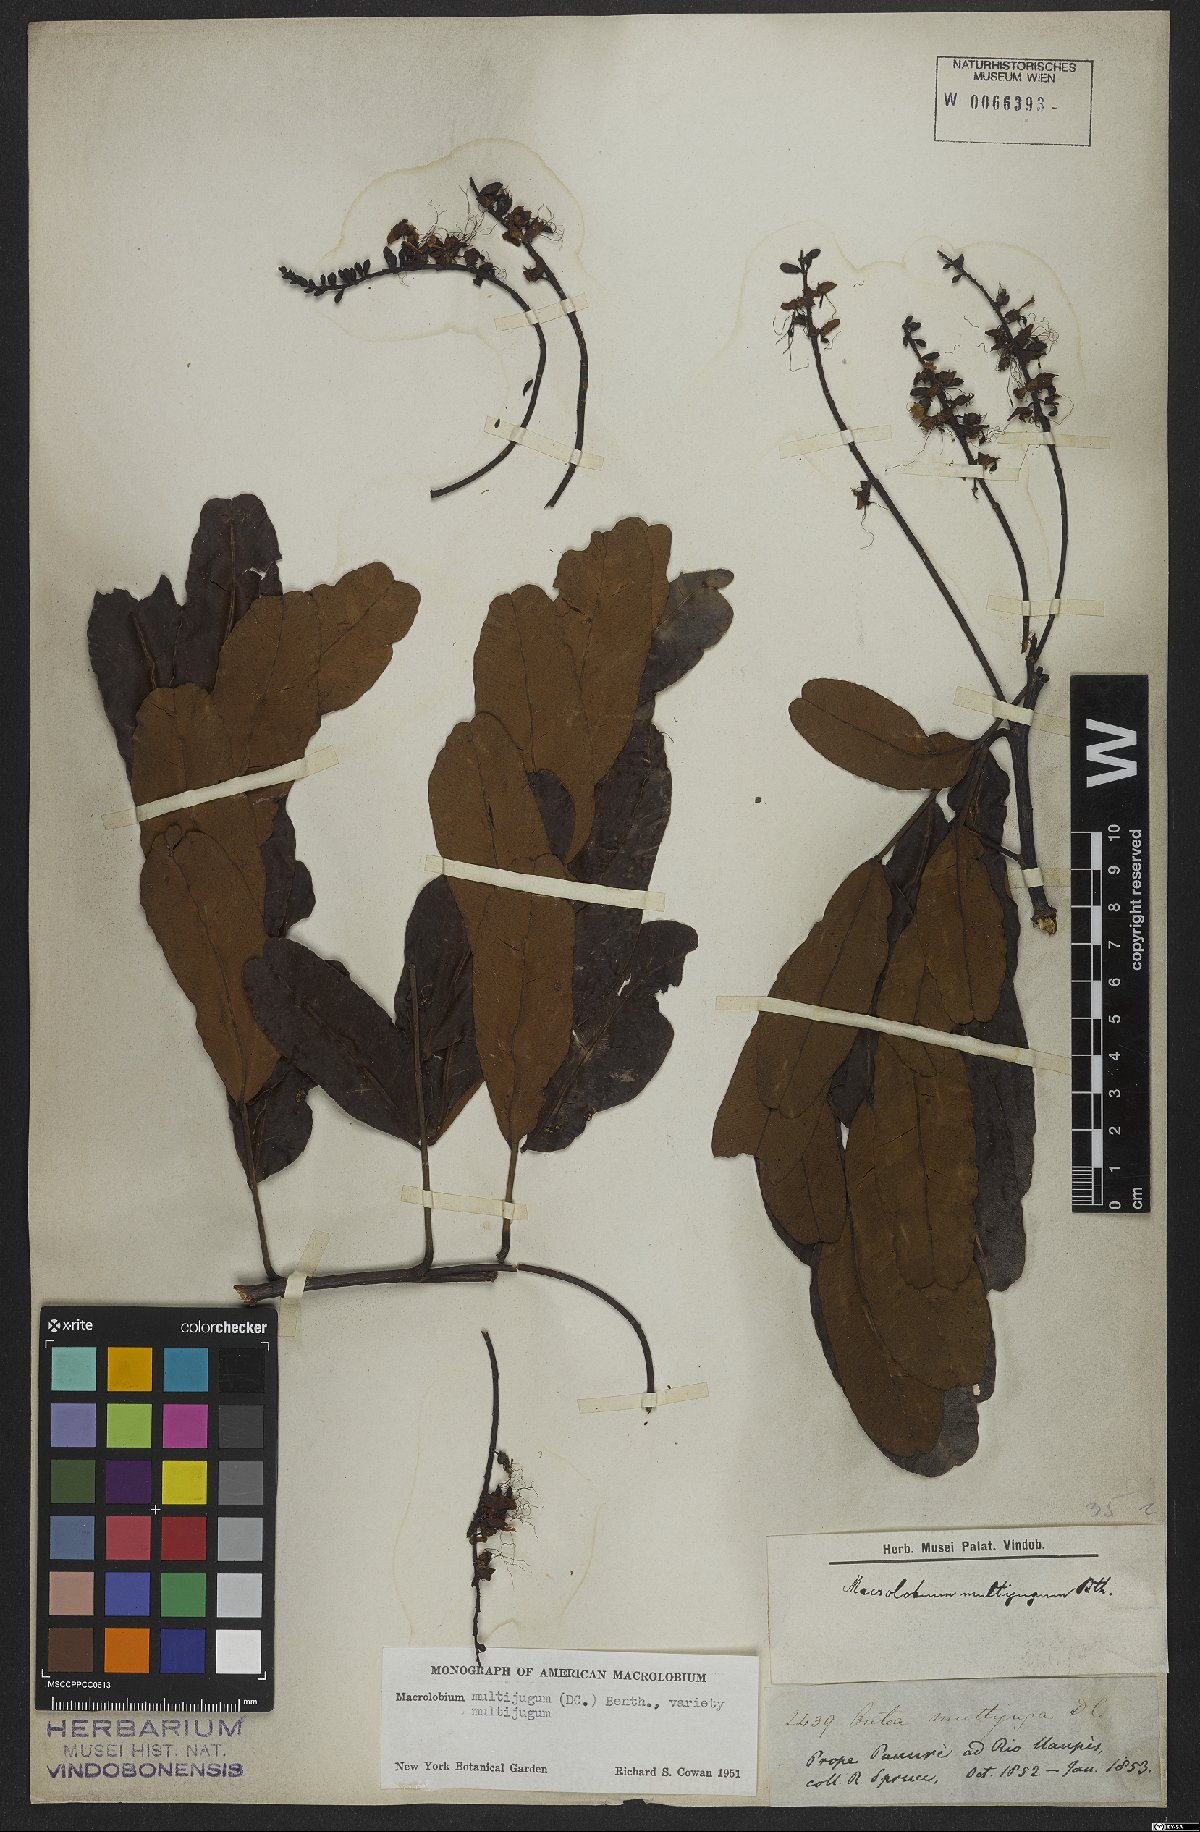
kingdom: Plantae
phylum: Tracheophyta
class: Magnoliopsida
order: Fabales
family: Fabaceae
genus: Macrolobium
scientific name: Macrolobium multijugum
